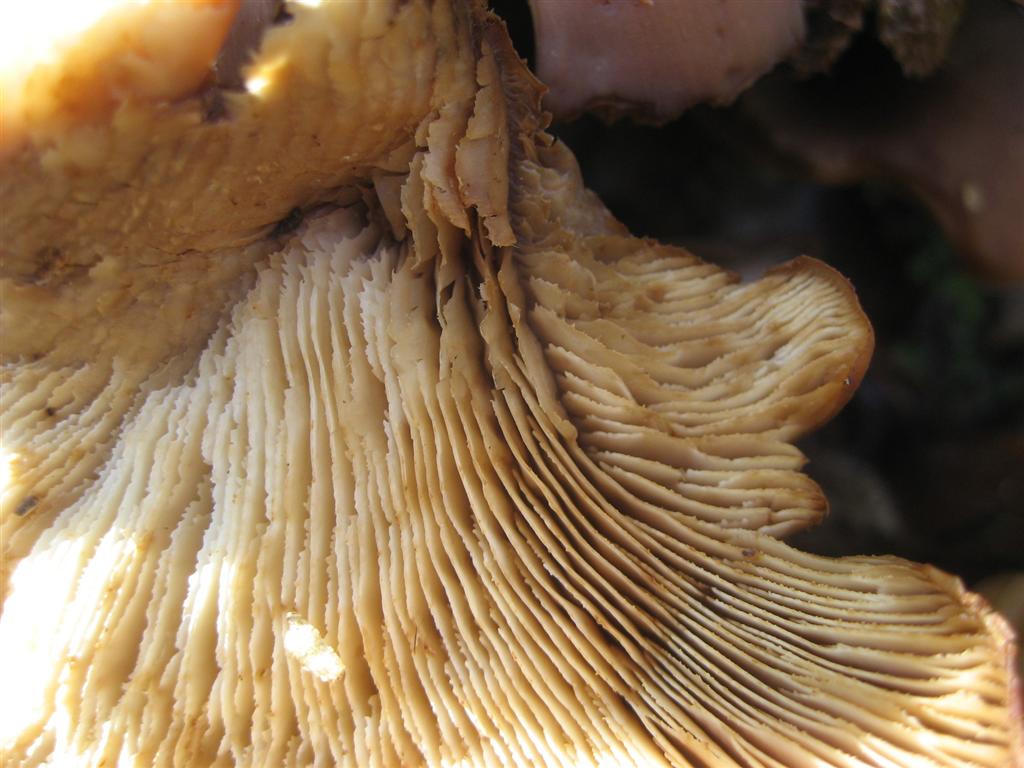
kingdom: Fungi
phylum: Basidiomycota
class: Agaricomycetes
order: Russulales
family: Auriscalpiaceae
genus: Lentinellus
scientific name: Lentinellus ursinus
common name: børstehåret savbladhat
